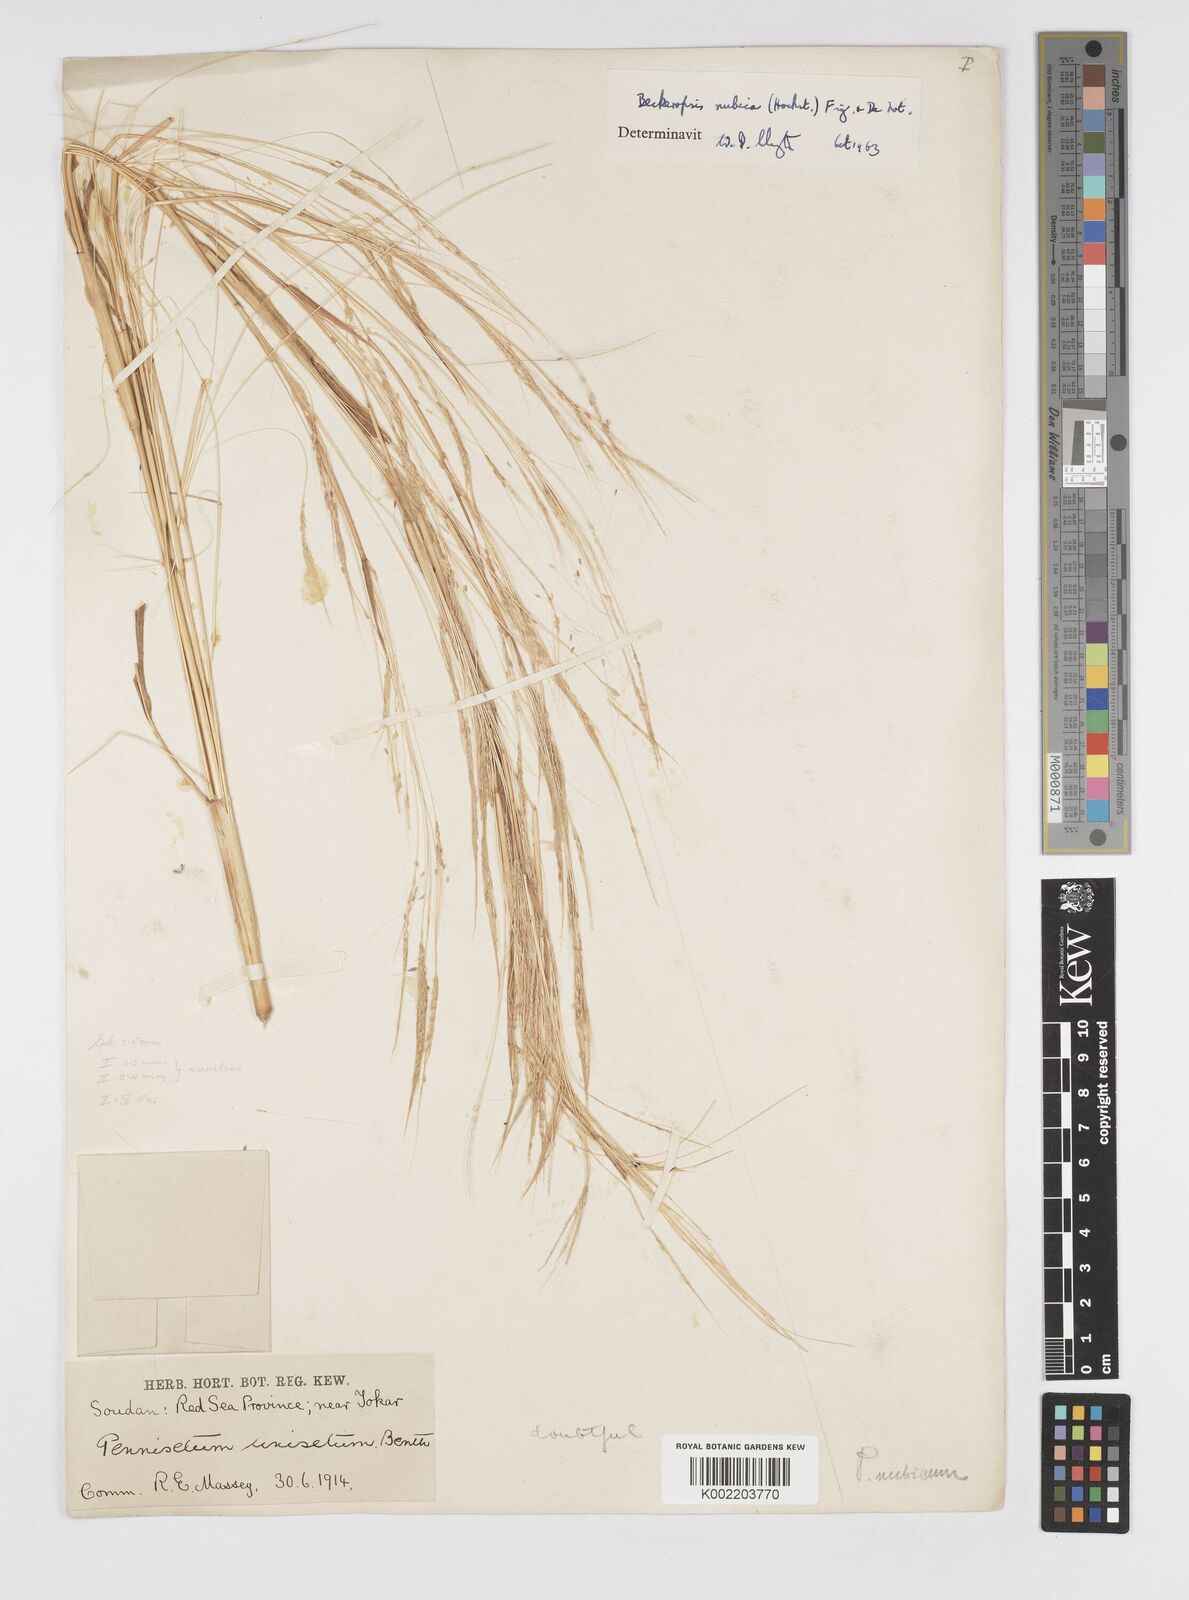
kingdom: Plantae
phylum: Tracheophyta
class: Liliopsida
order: Poales
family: Poaceae
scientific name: Poaceae
